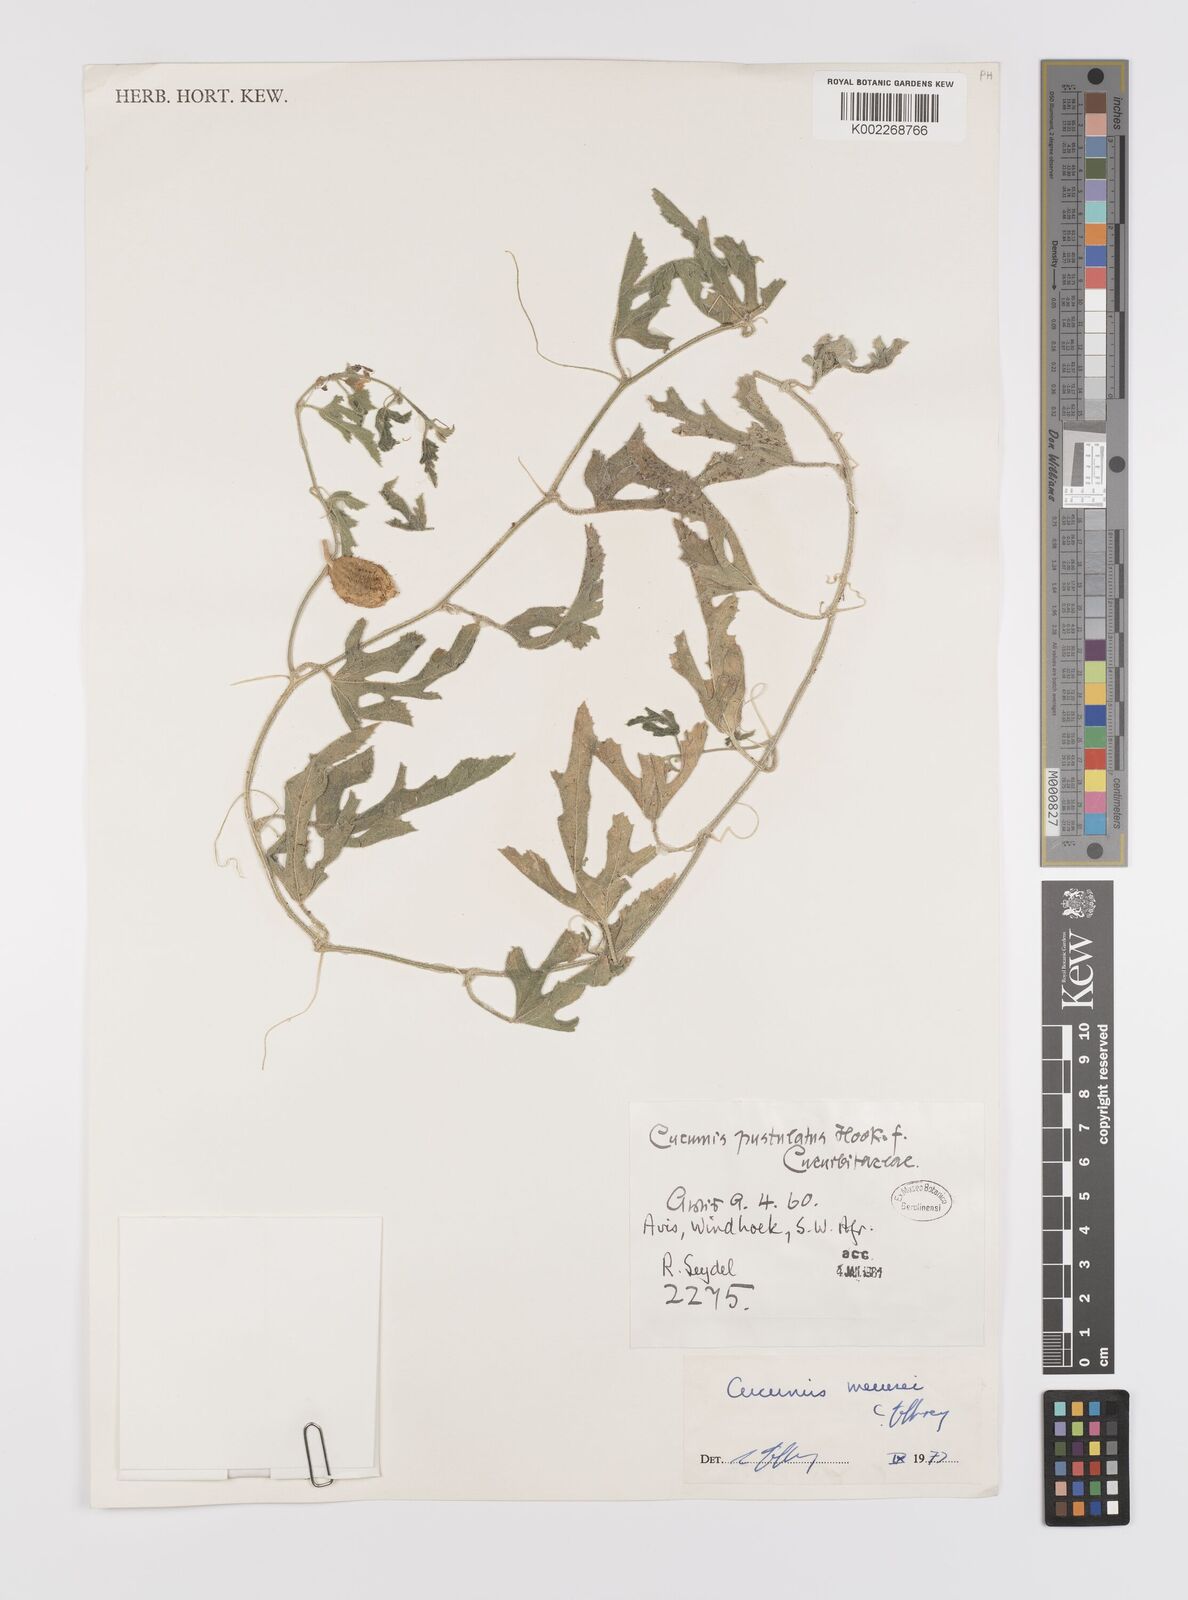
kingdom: Plantae
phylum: Tracheophyta
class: Magnoliopsida
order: Cucurbitales
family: Cucurbitaceae
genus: Cucumis
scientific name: Cucumis meeusei
